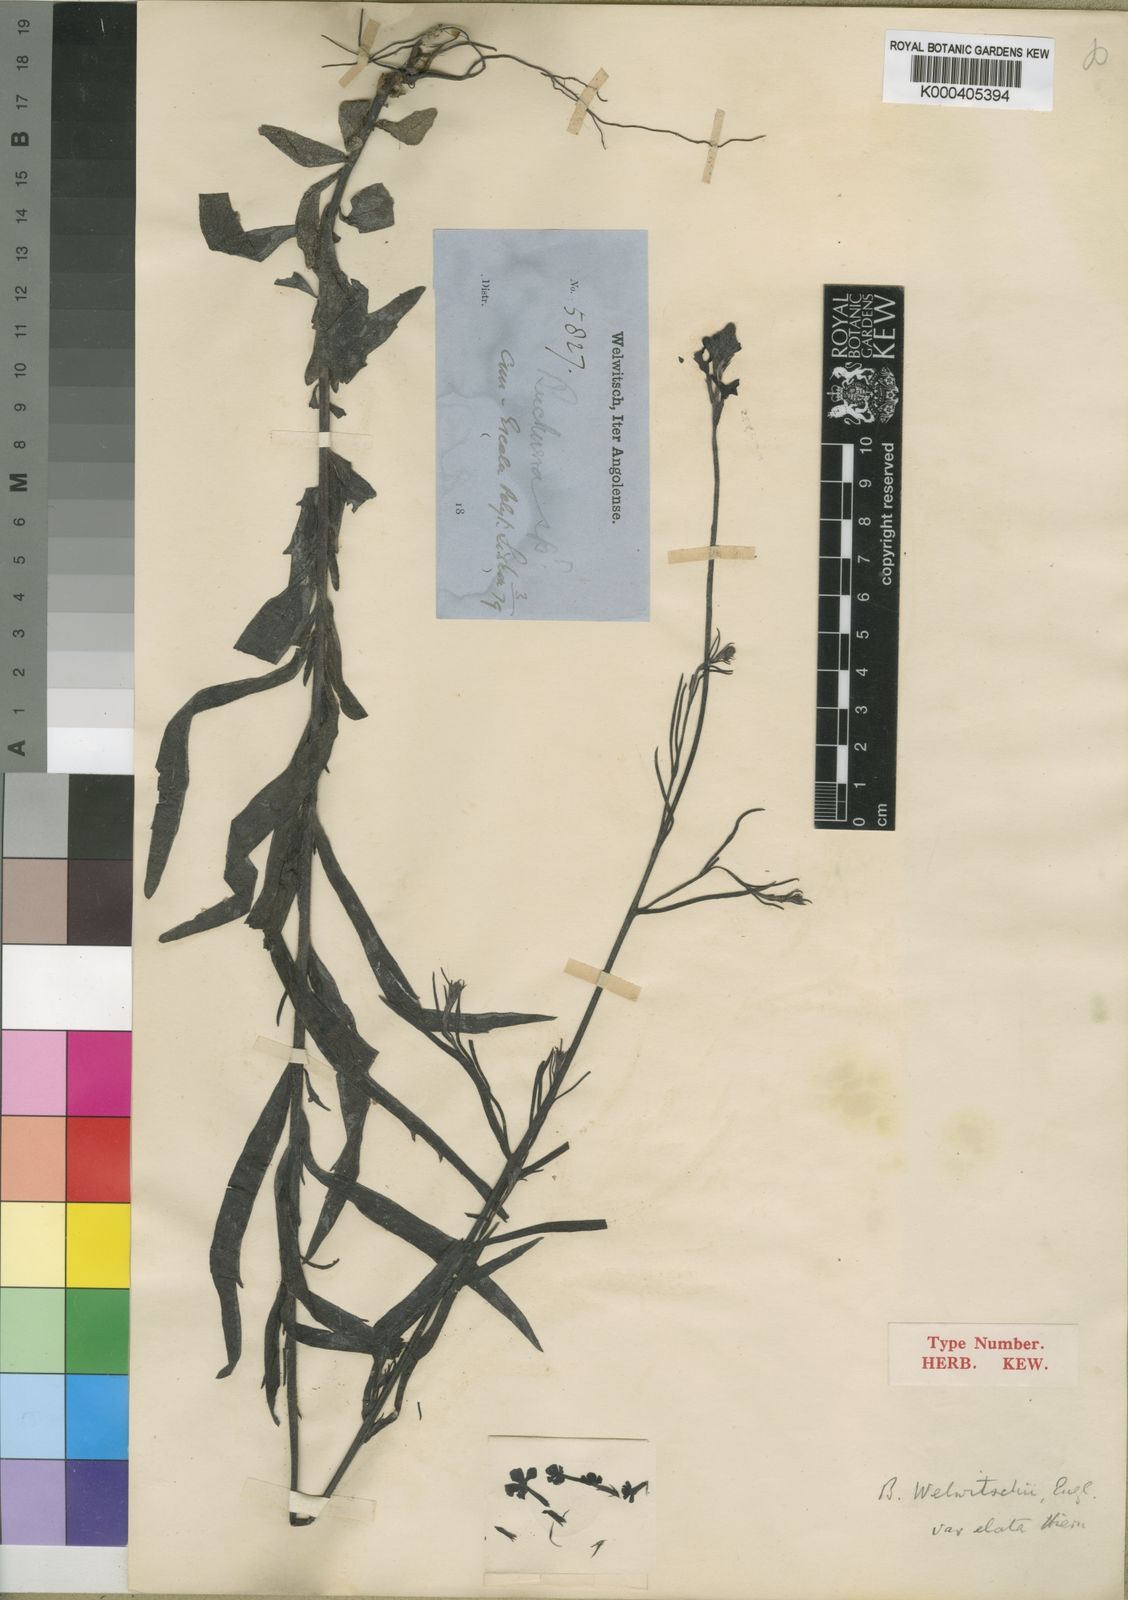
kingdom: Plantae
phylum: Tracheophyta
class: Magnoliopsida
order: Lamiales
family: Orobanchaceae
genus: Buchnera
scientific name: Buchnera welwitschii
